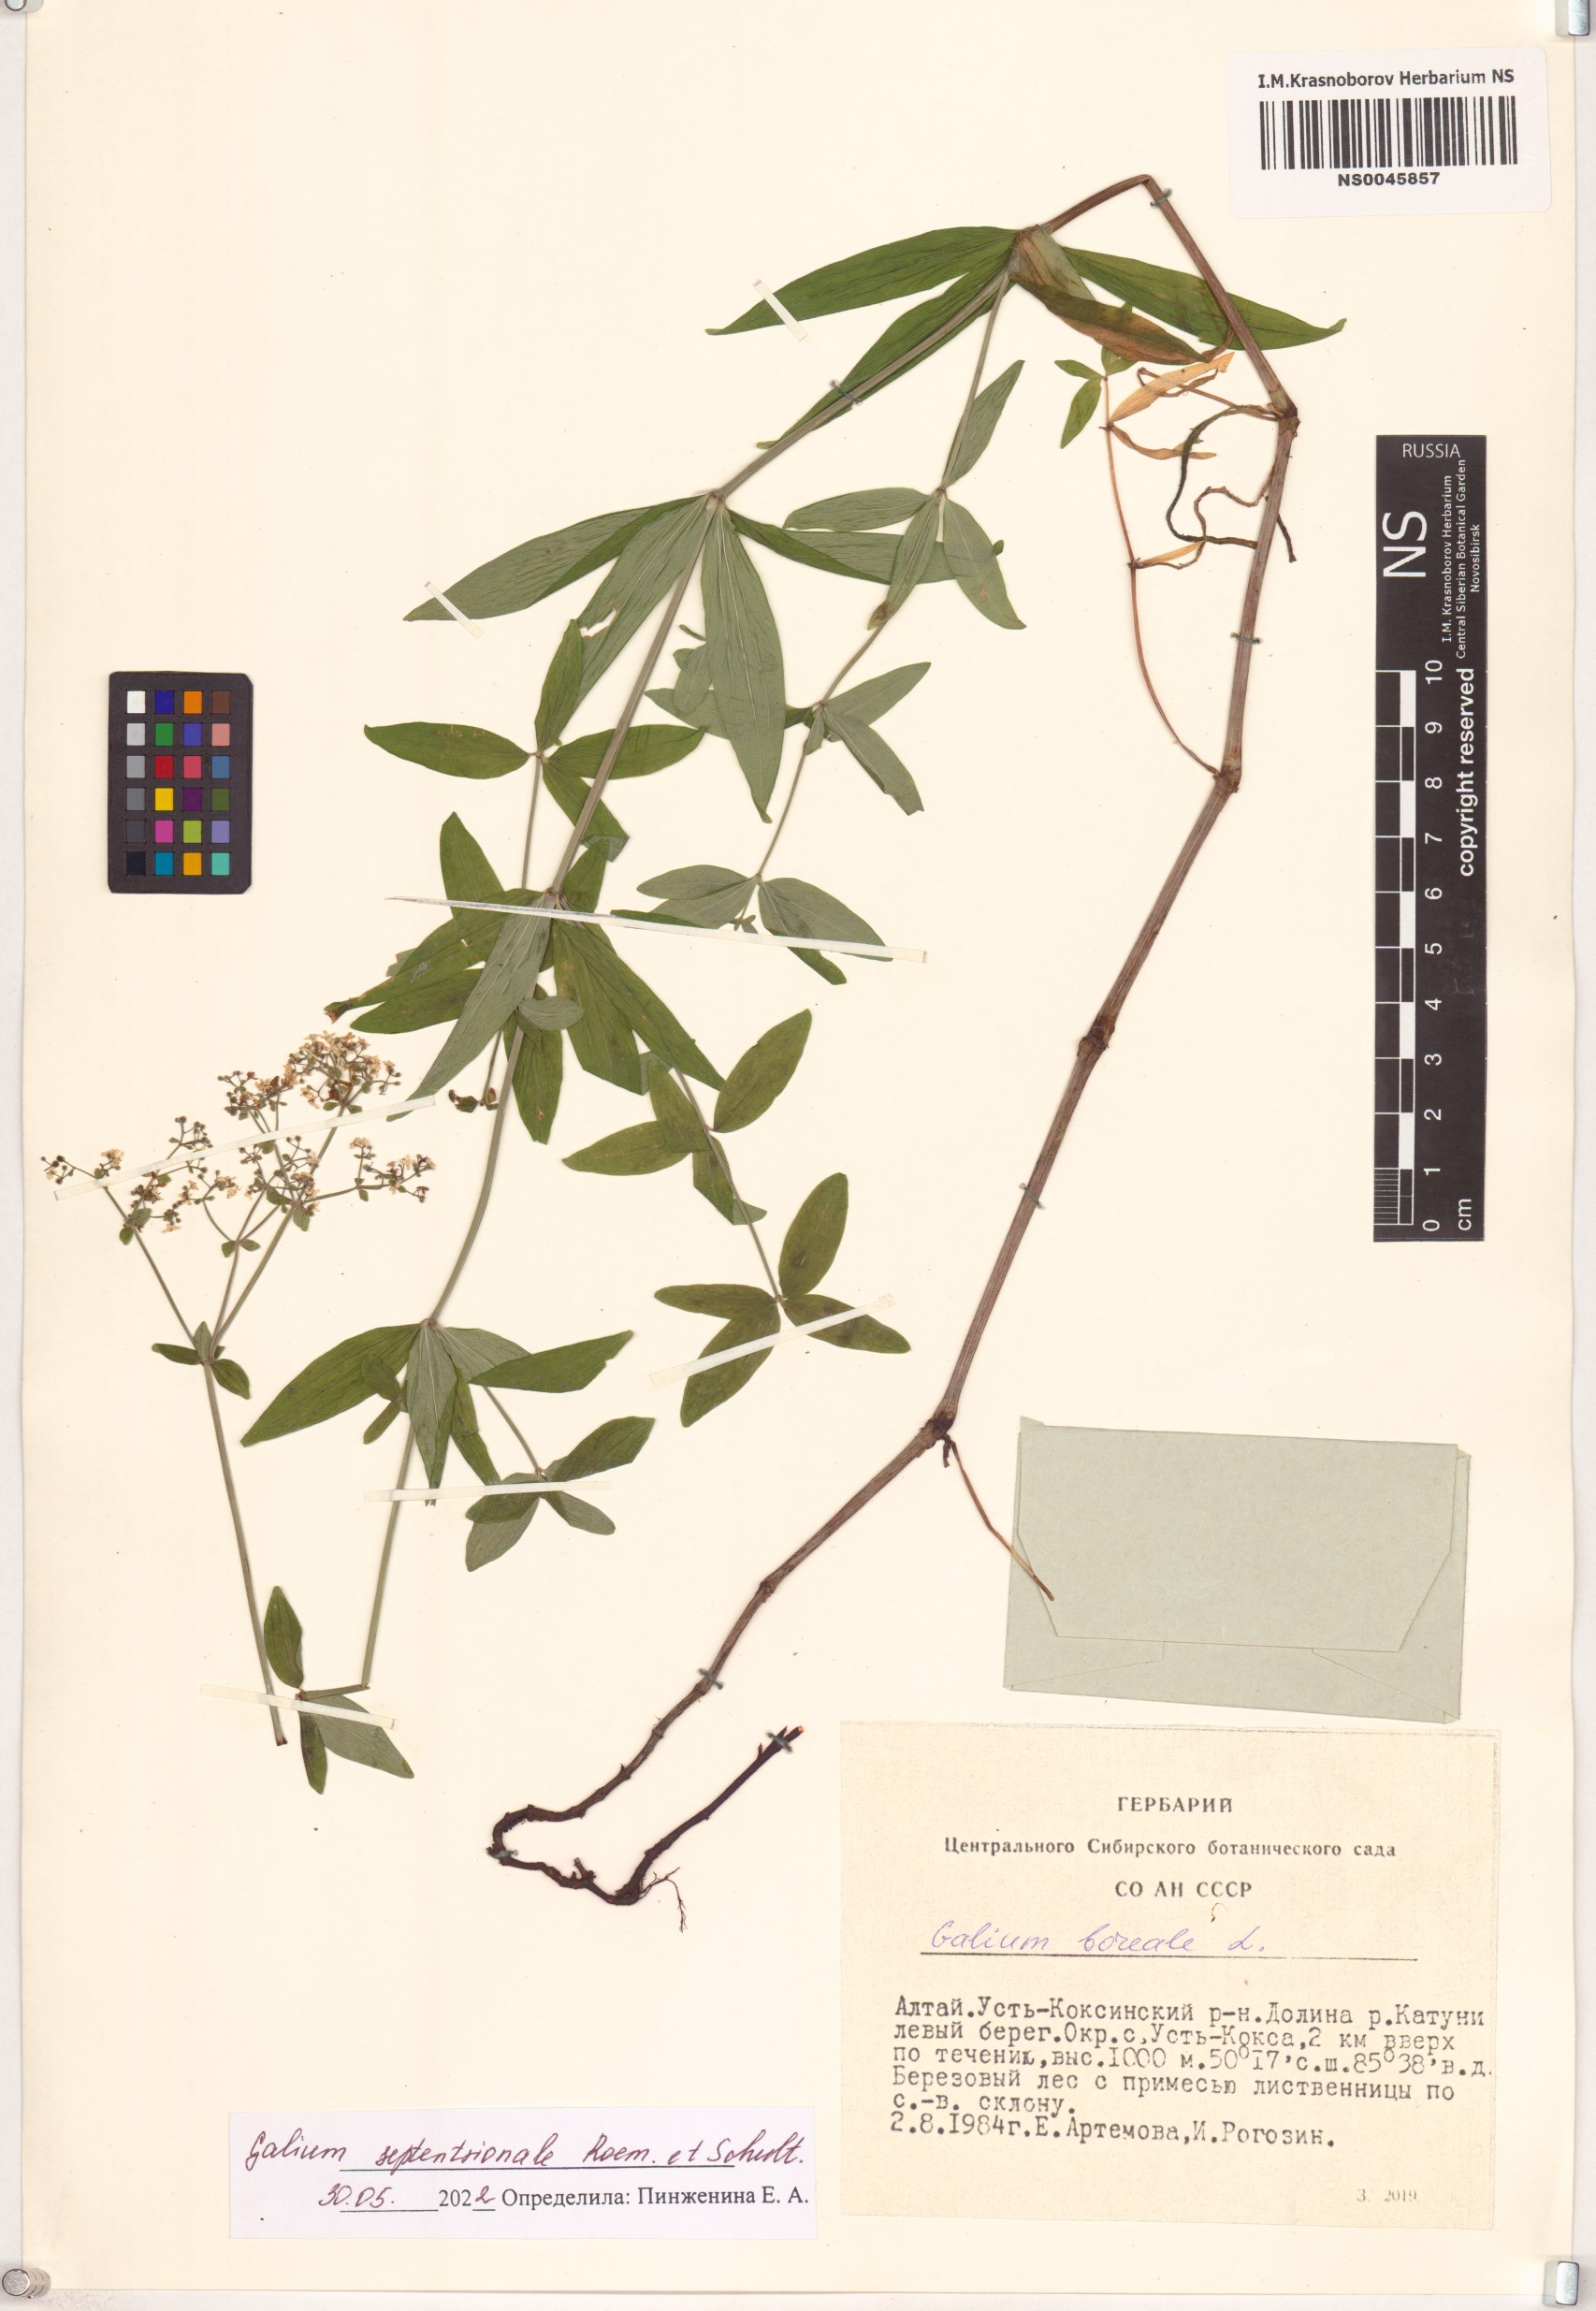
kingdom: Plantae
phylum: Tracheophyta
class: Magnoliopsida
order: Gentianales
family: Rubiaceae
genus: Galium
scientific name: Galium boreale
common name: Northern bedstraw
